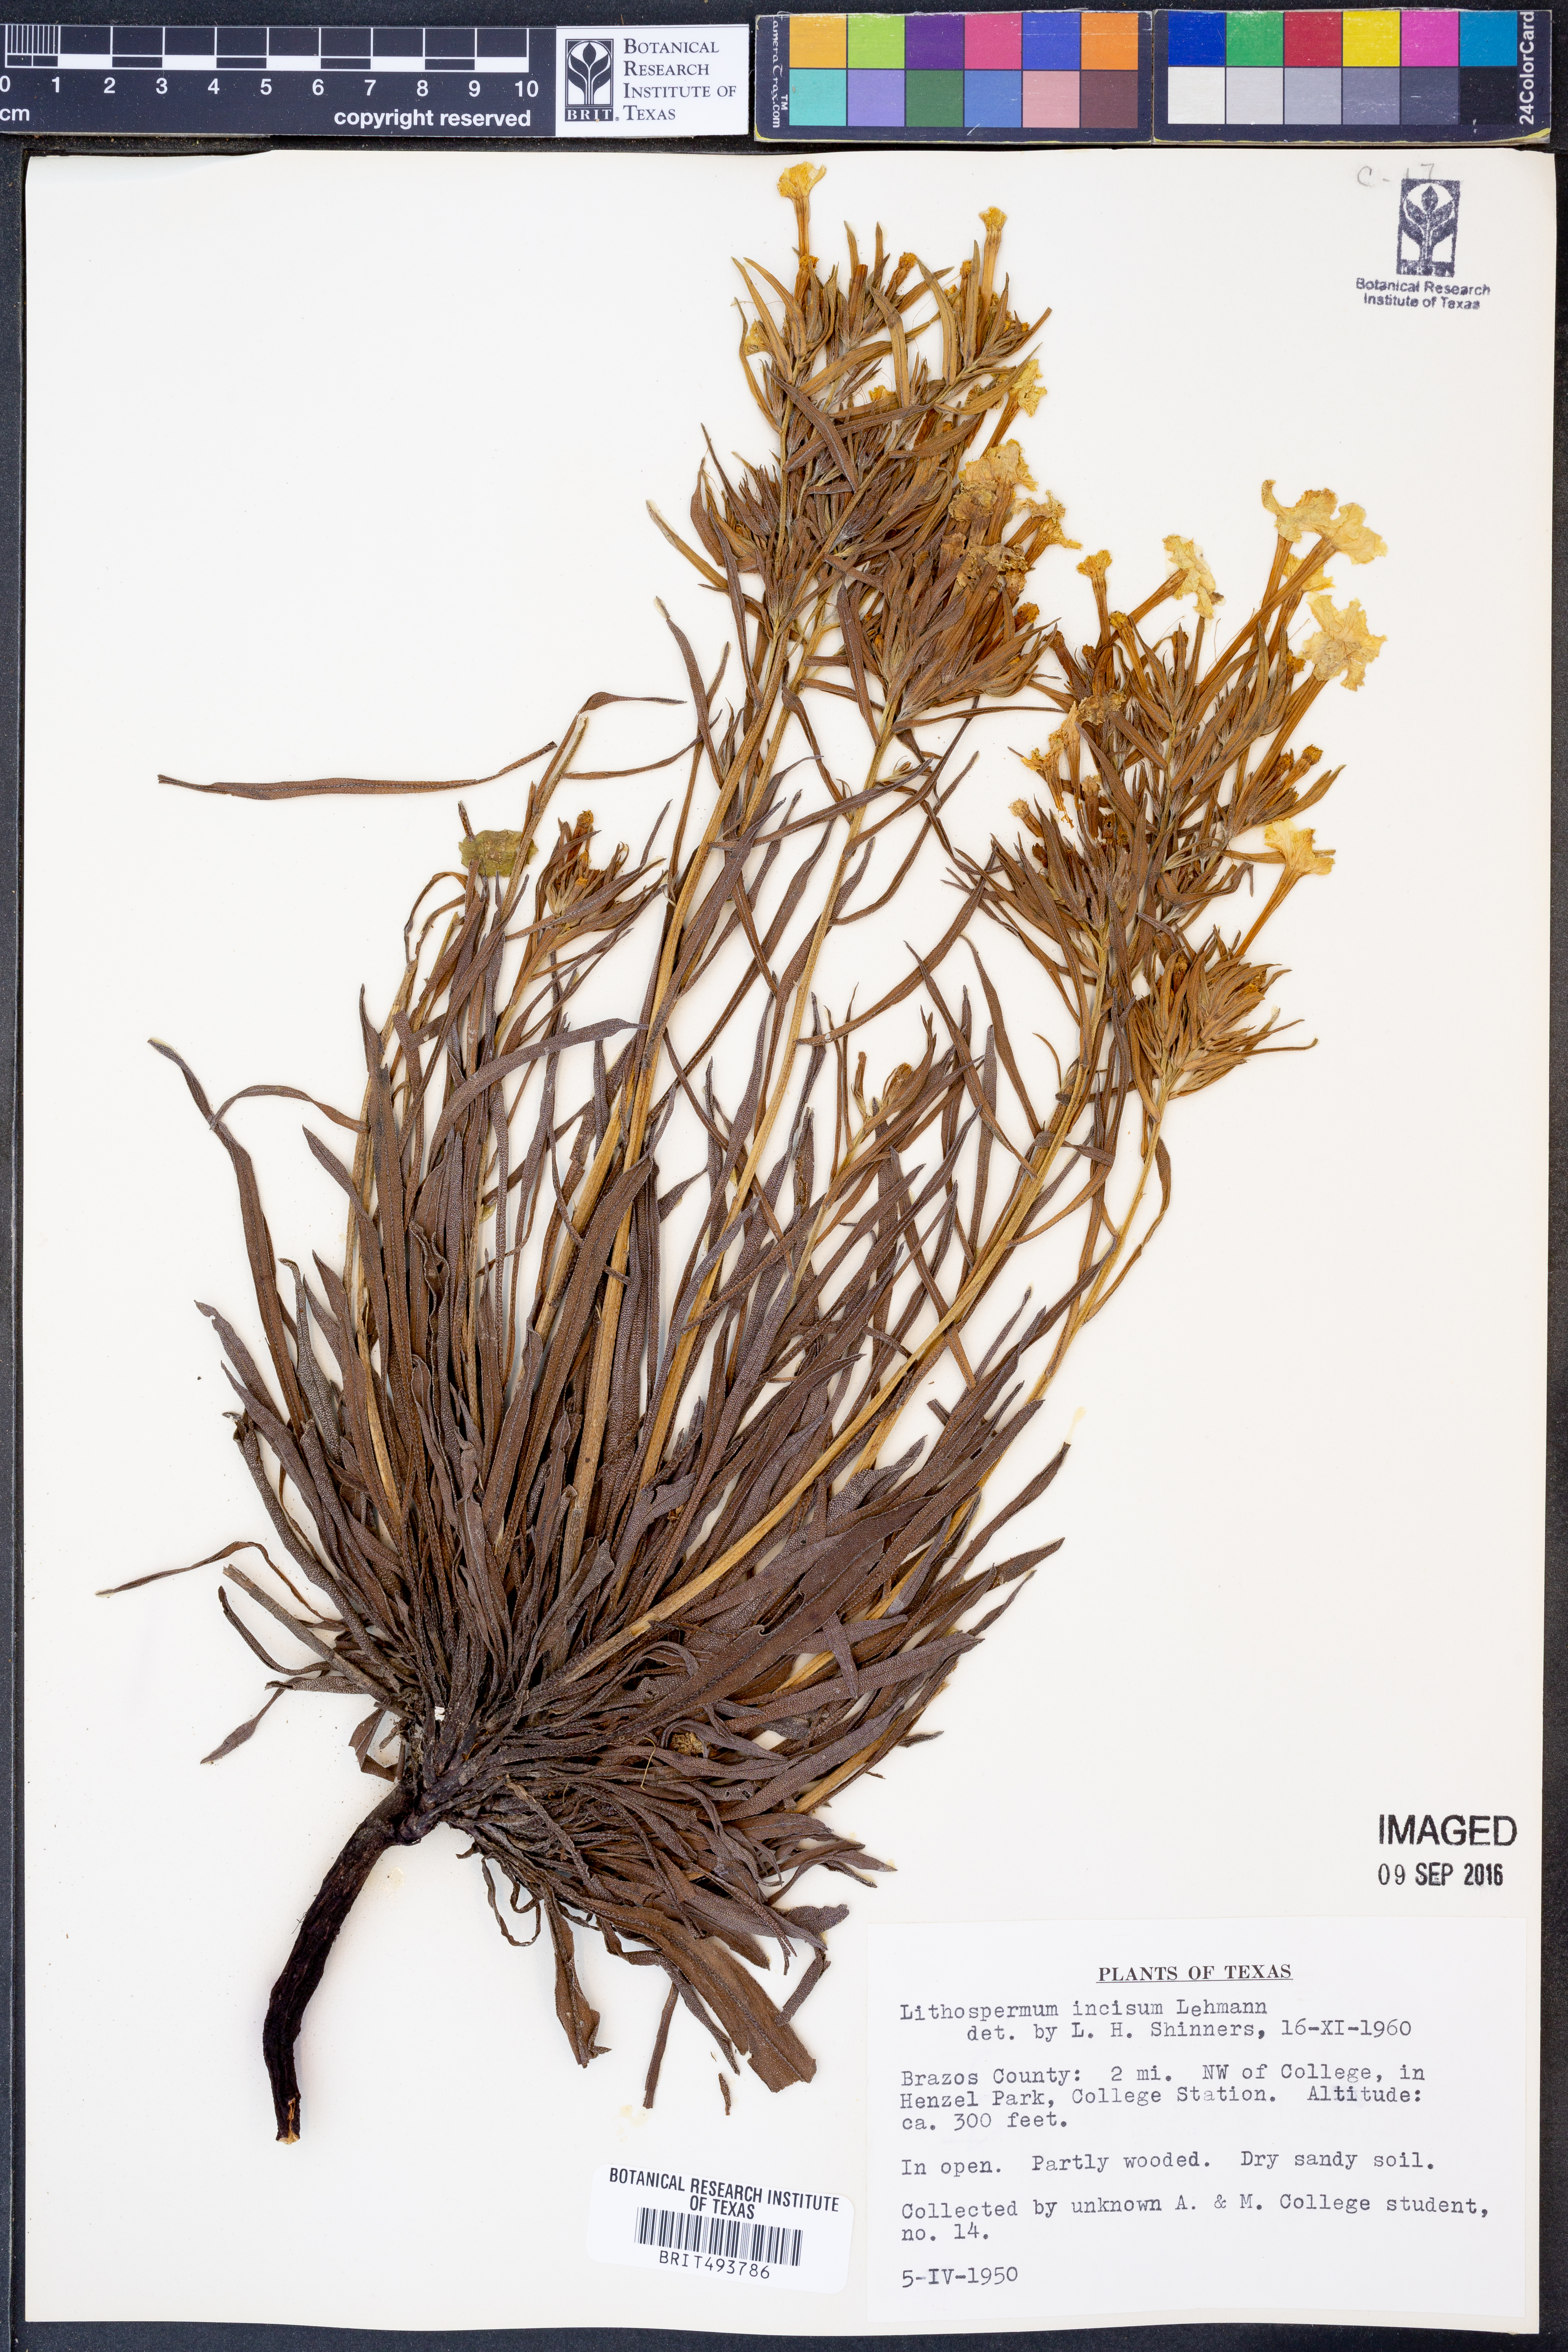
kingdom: Plantae
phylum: Tracheophyta
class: Magnoliopsida
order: Boraginales
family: Boraginaceae
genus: Lithospermum
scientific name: Lithospermum incisum
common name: Fringed gromwell
